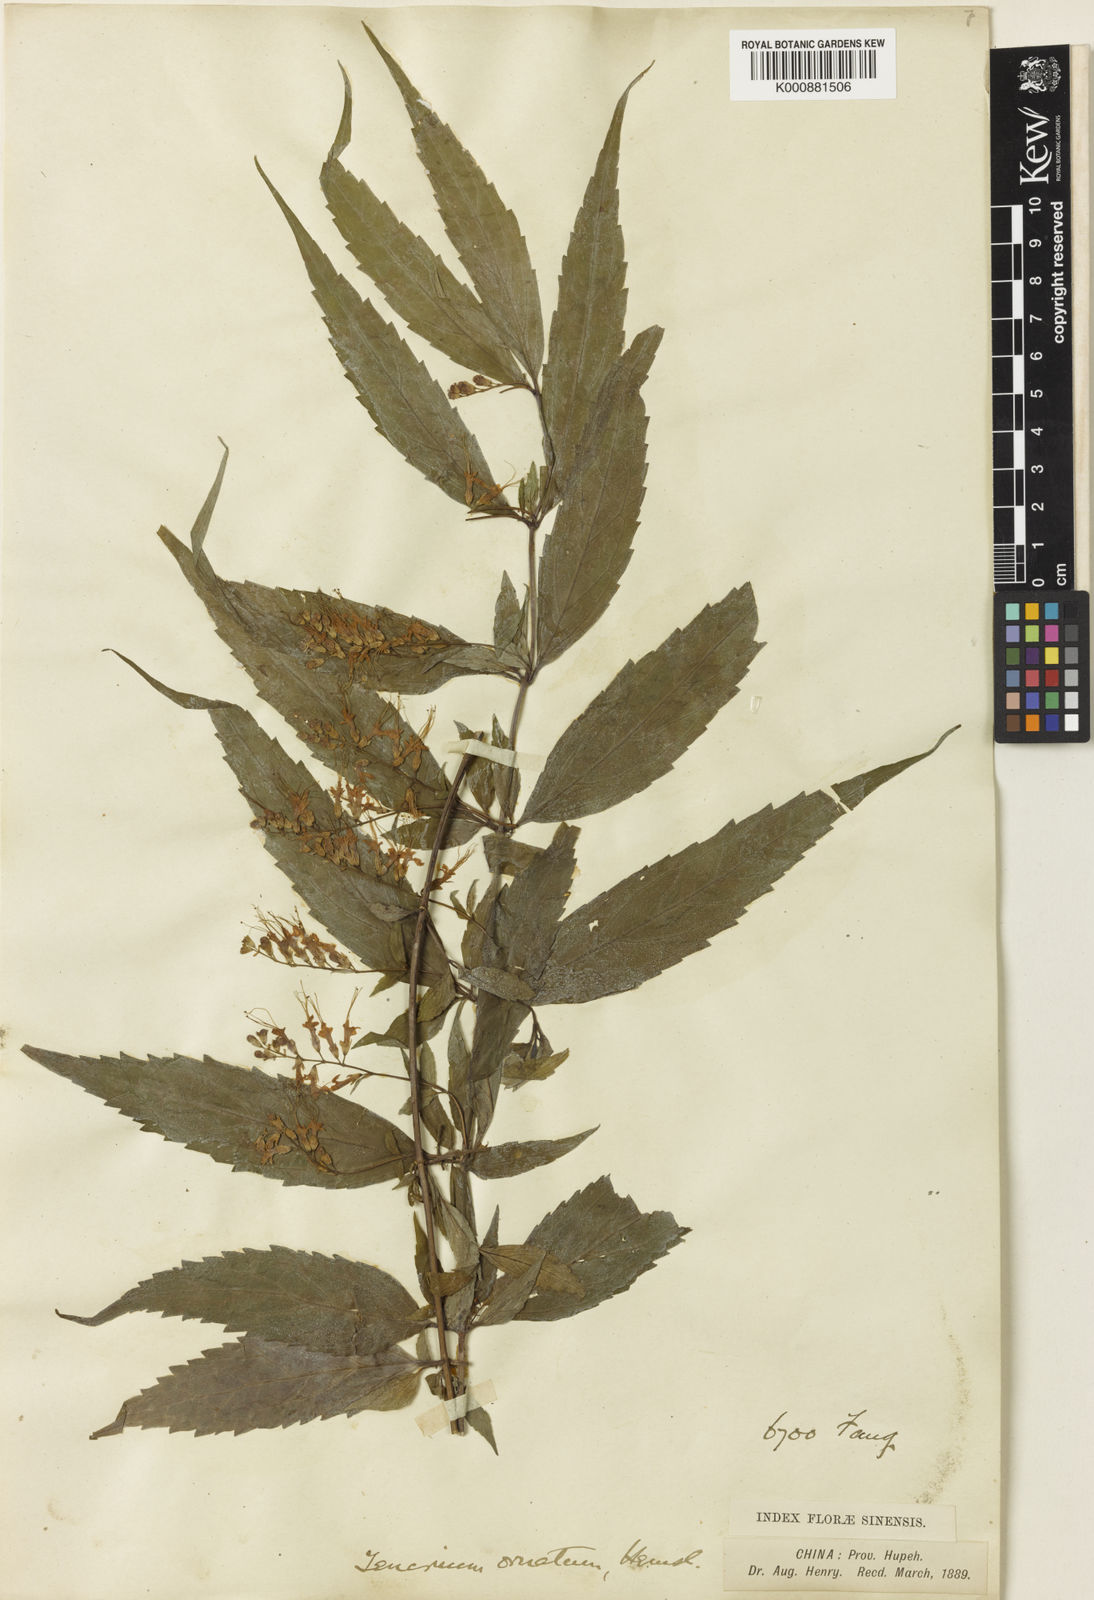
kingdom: Plantae
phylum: Tracheophyta
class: Magnoliopsida
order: Lamiales
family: Lamiaceae
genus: Teucrium
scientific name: Teucrium ornatum
